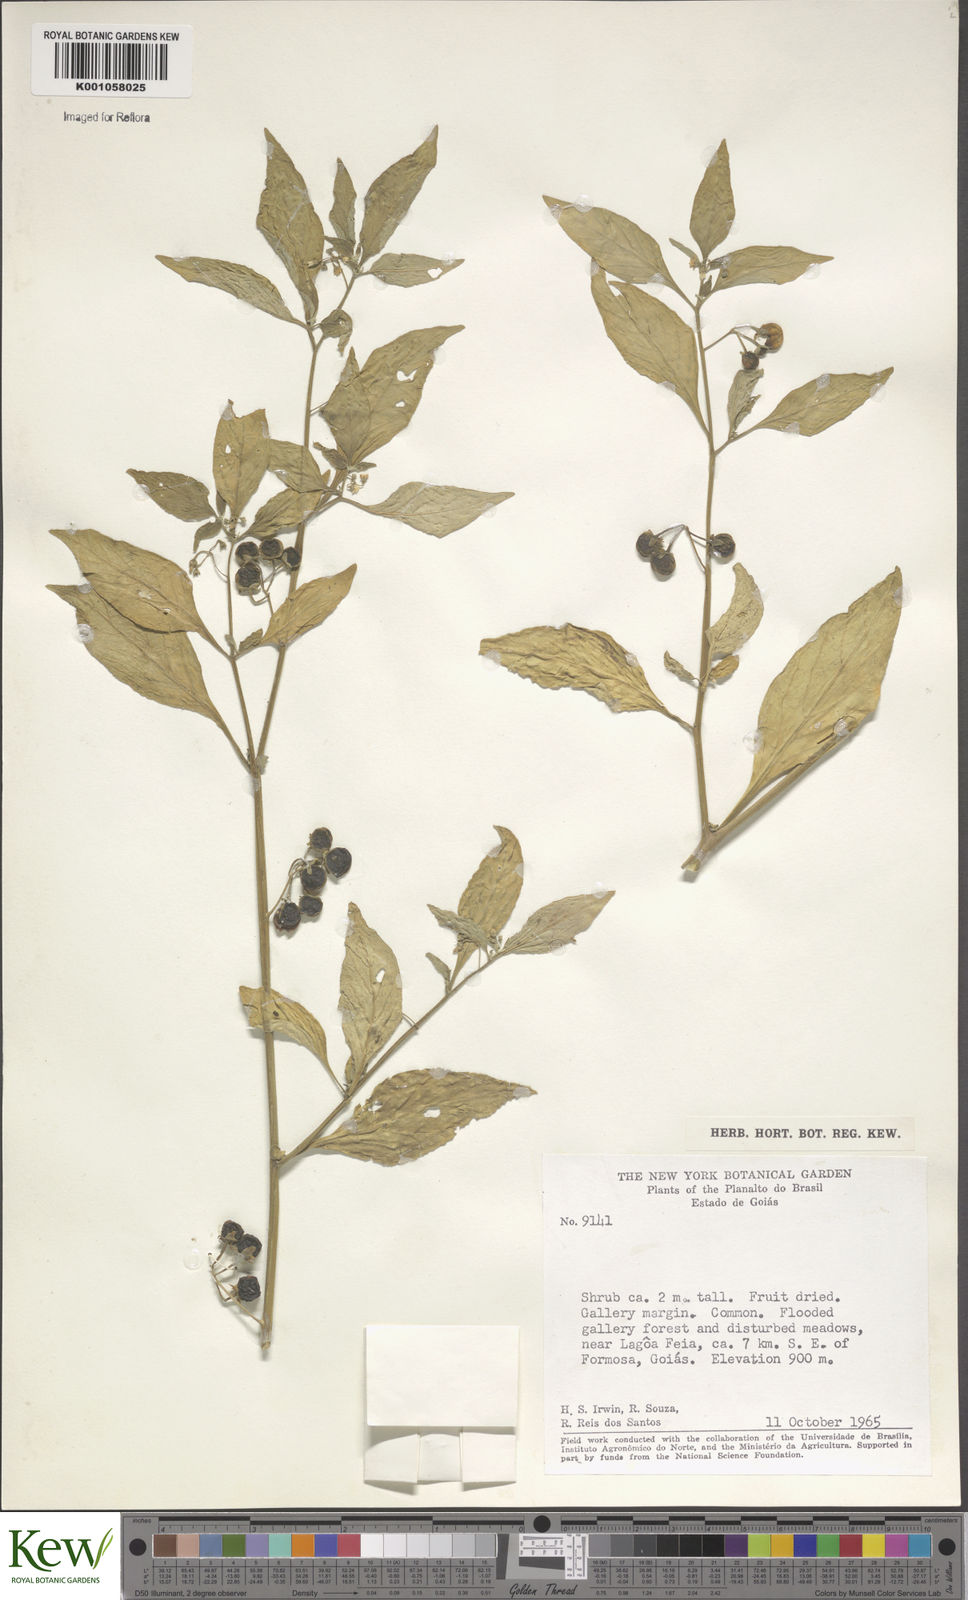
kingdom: Plantae
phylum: Tracheophyta
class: Magnoliopsida
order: Solanales
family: Solanaceae
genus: Solanum
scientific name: Solanum americanum
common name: American black nightshade
